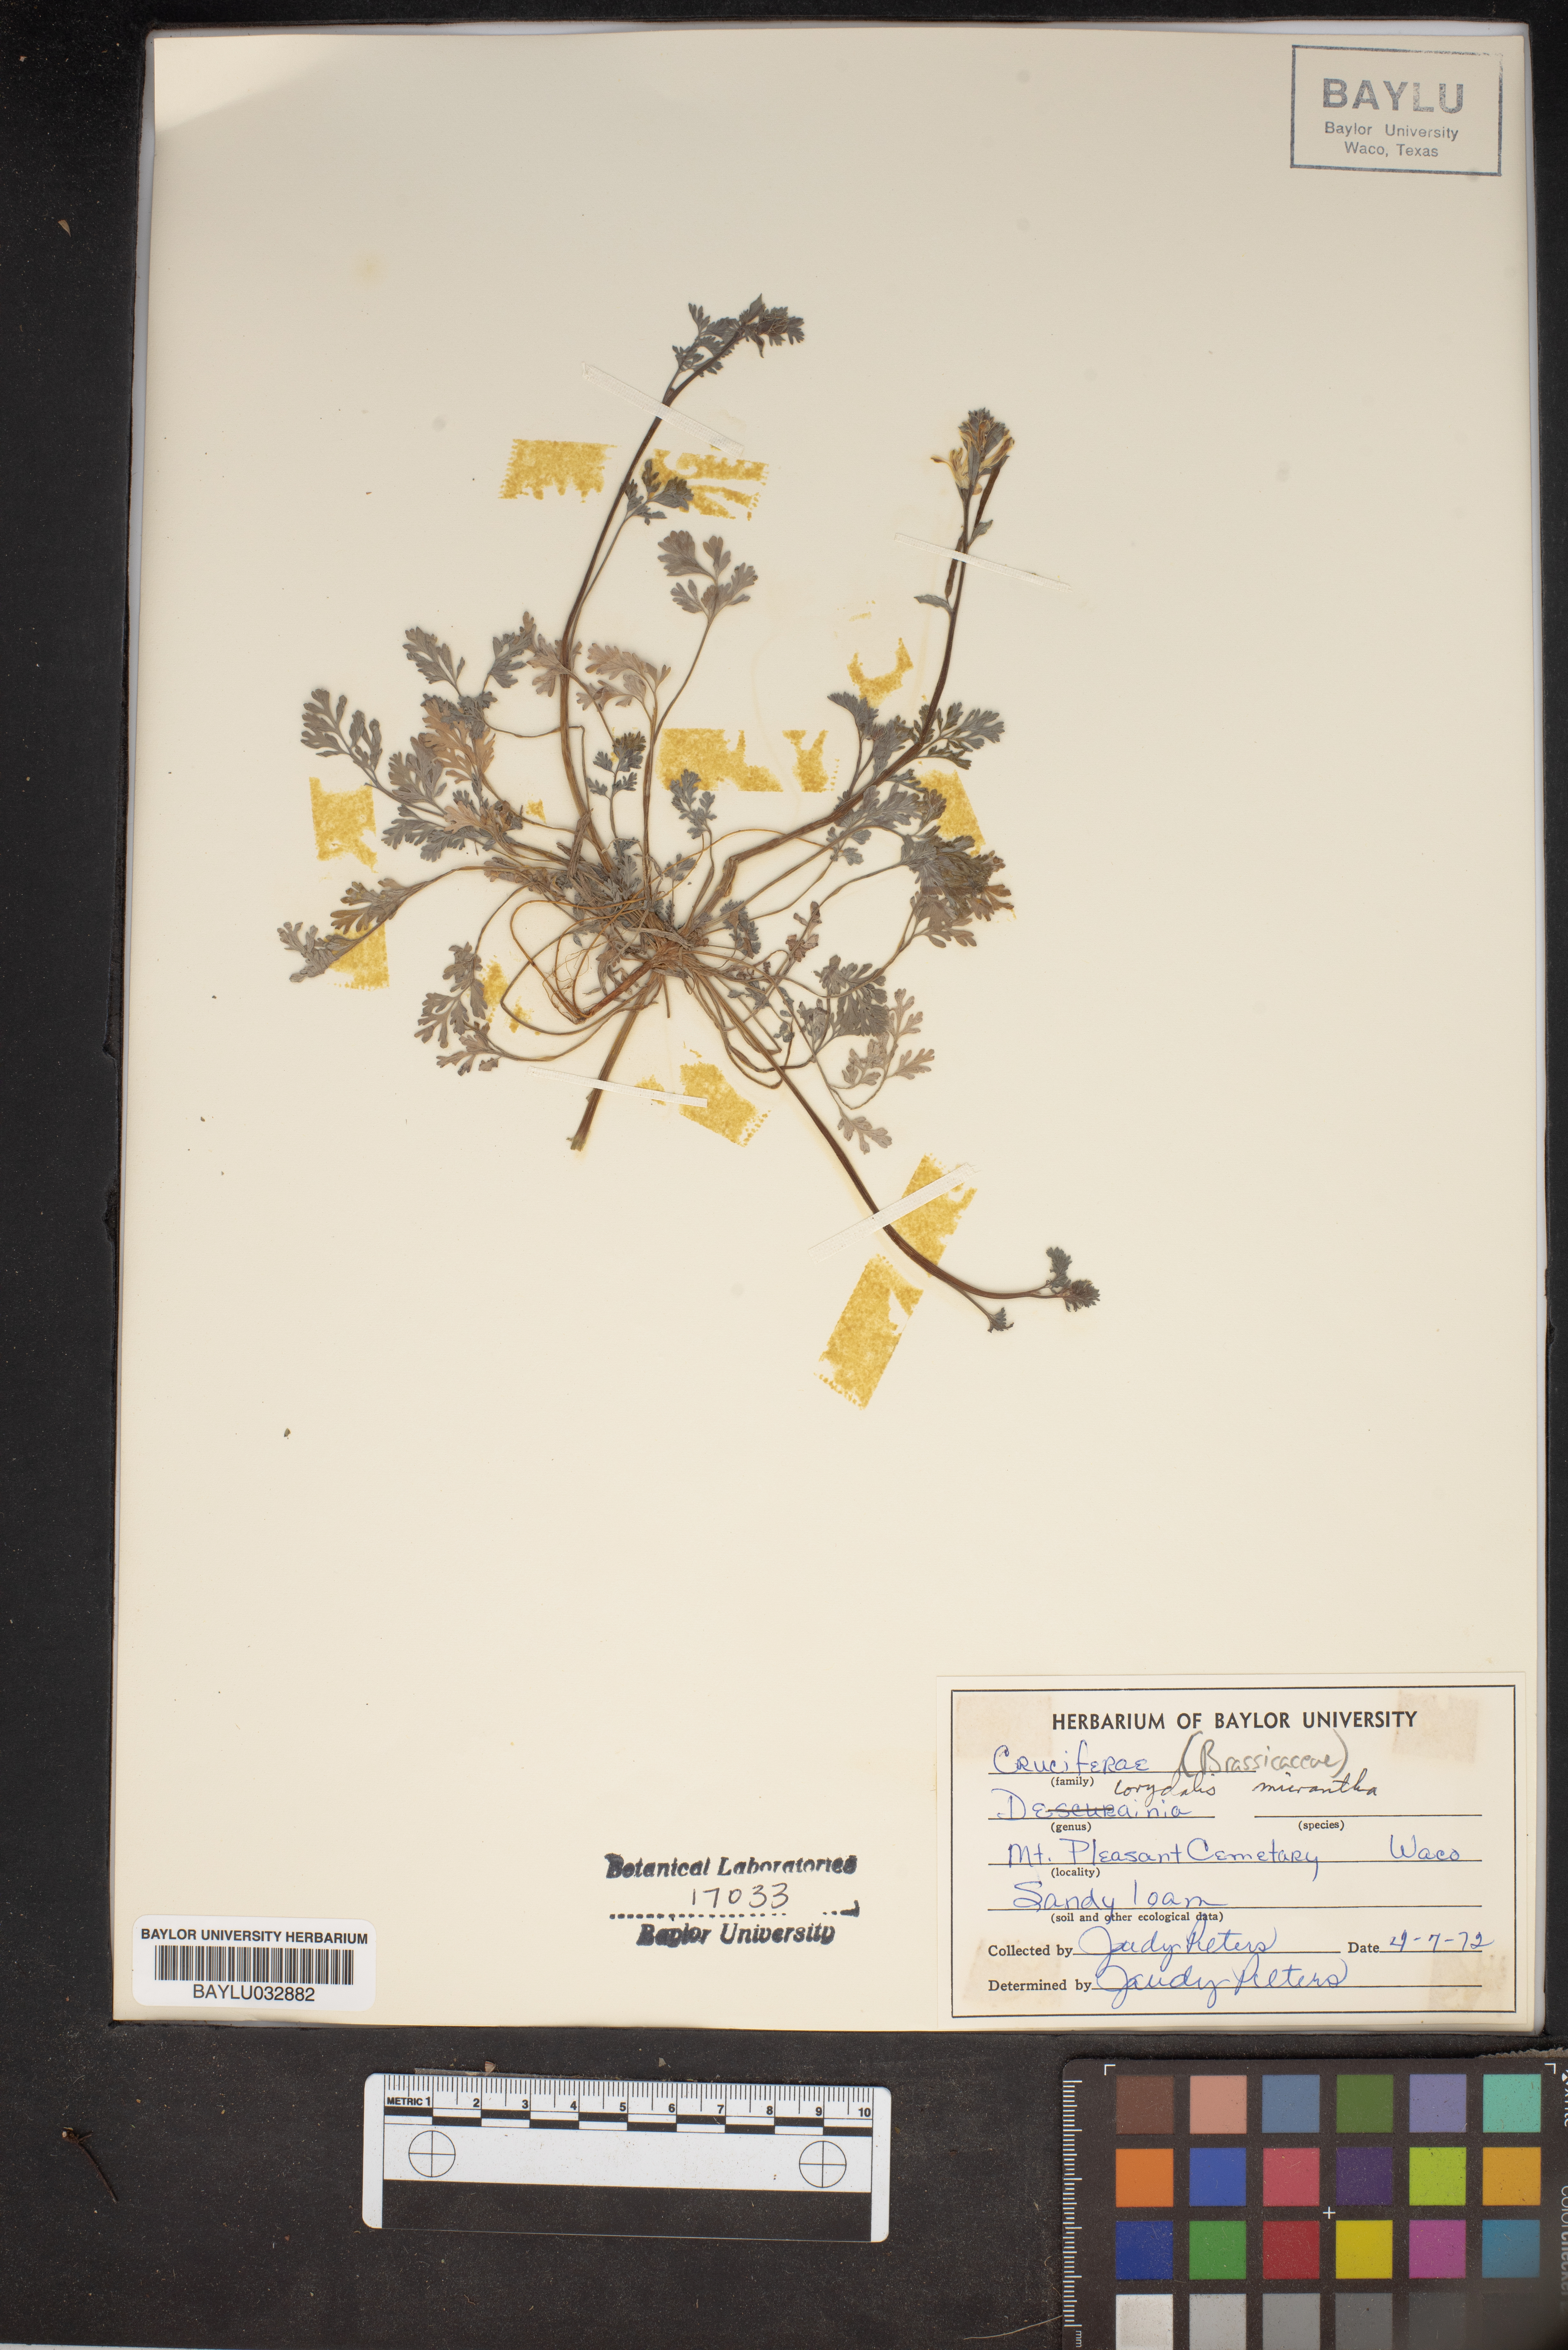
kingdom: Plantae
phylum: Tracheophyta
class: Magnoliopsida
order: Ranunculales
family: Papaveraceae
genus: Corydalis
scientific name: Corydalis micrantha
